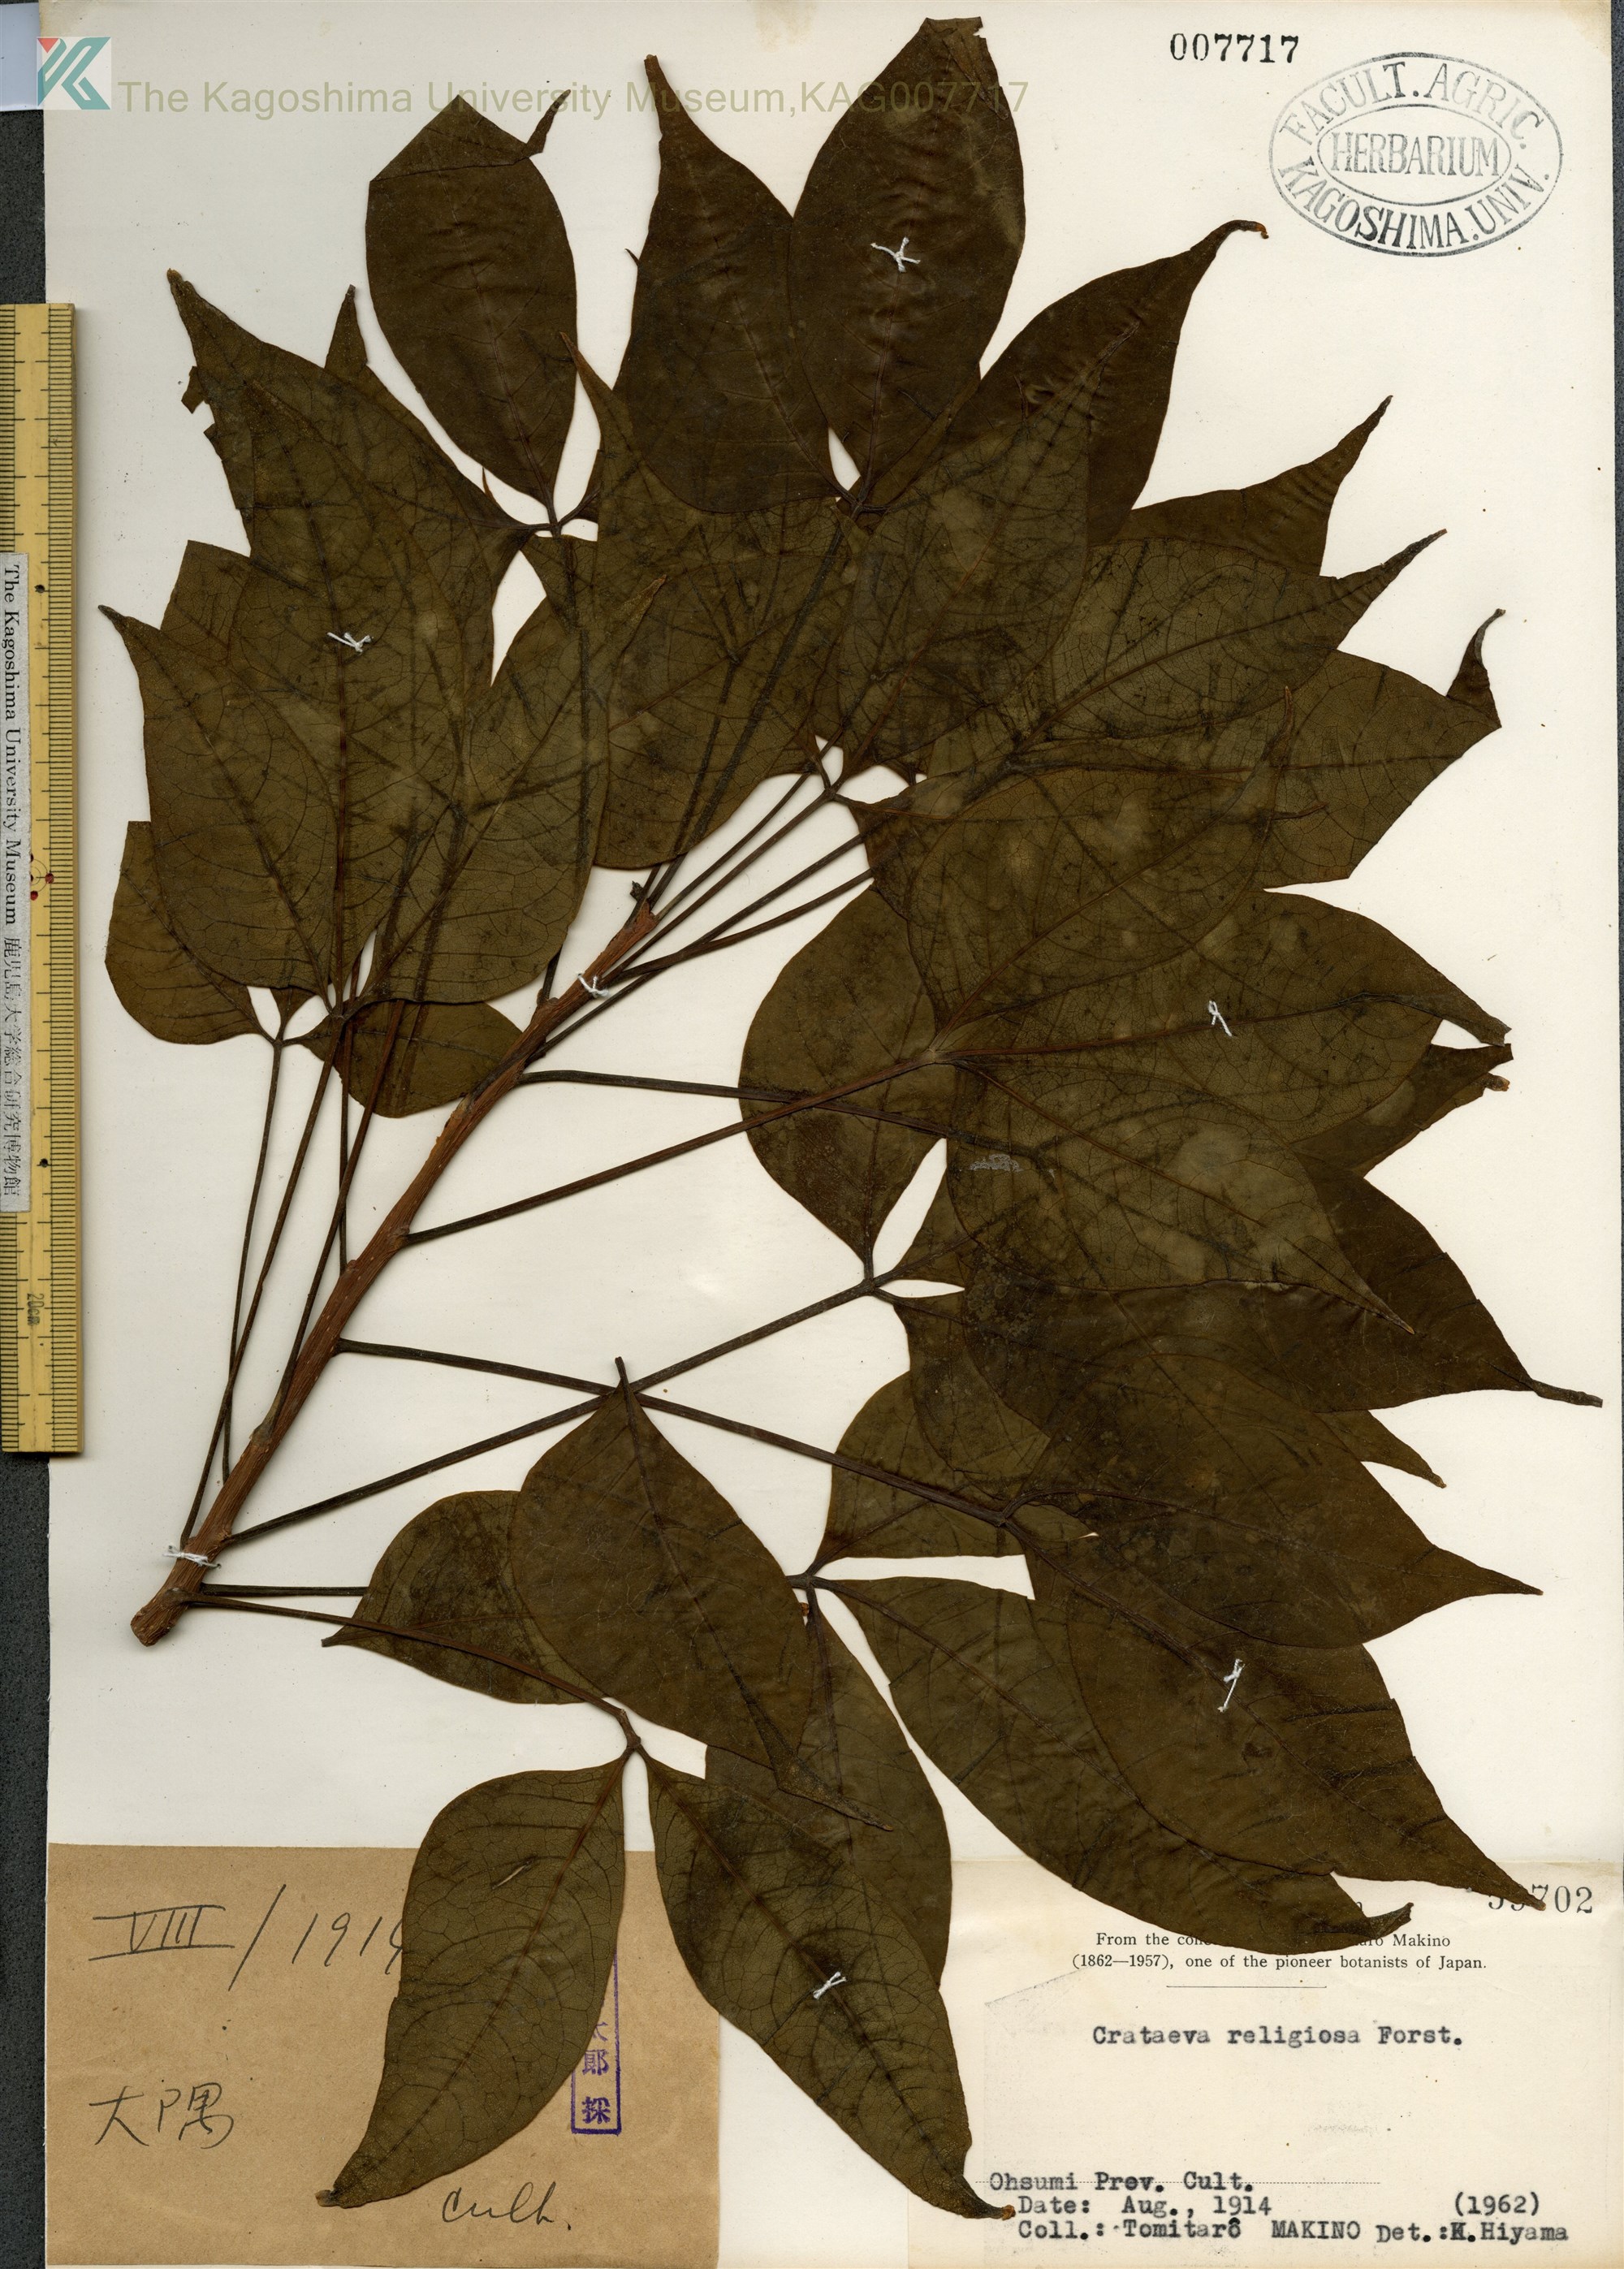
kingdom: Plantae
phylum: Tracheophyta
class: Magnoliopsida
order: Brassicales
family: Capparaceae
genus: Crateva
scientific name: Crateva formosensis
